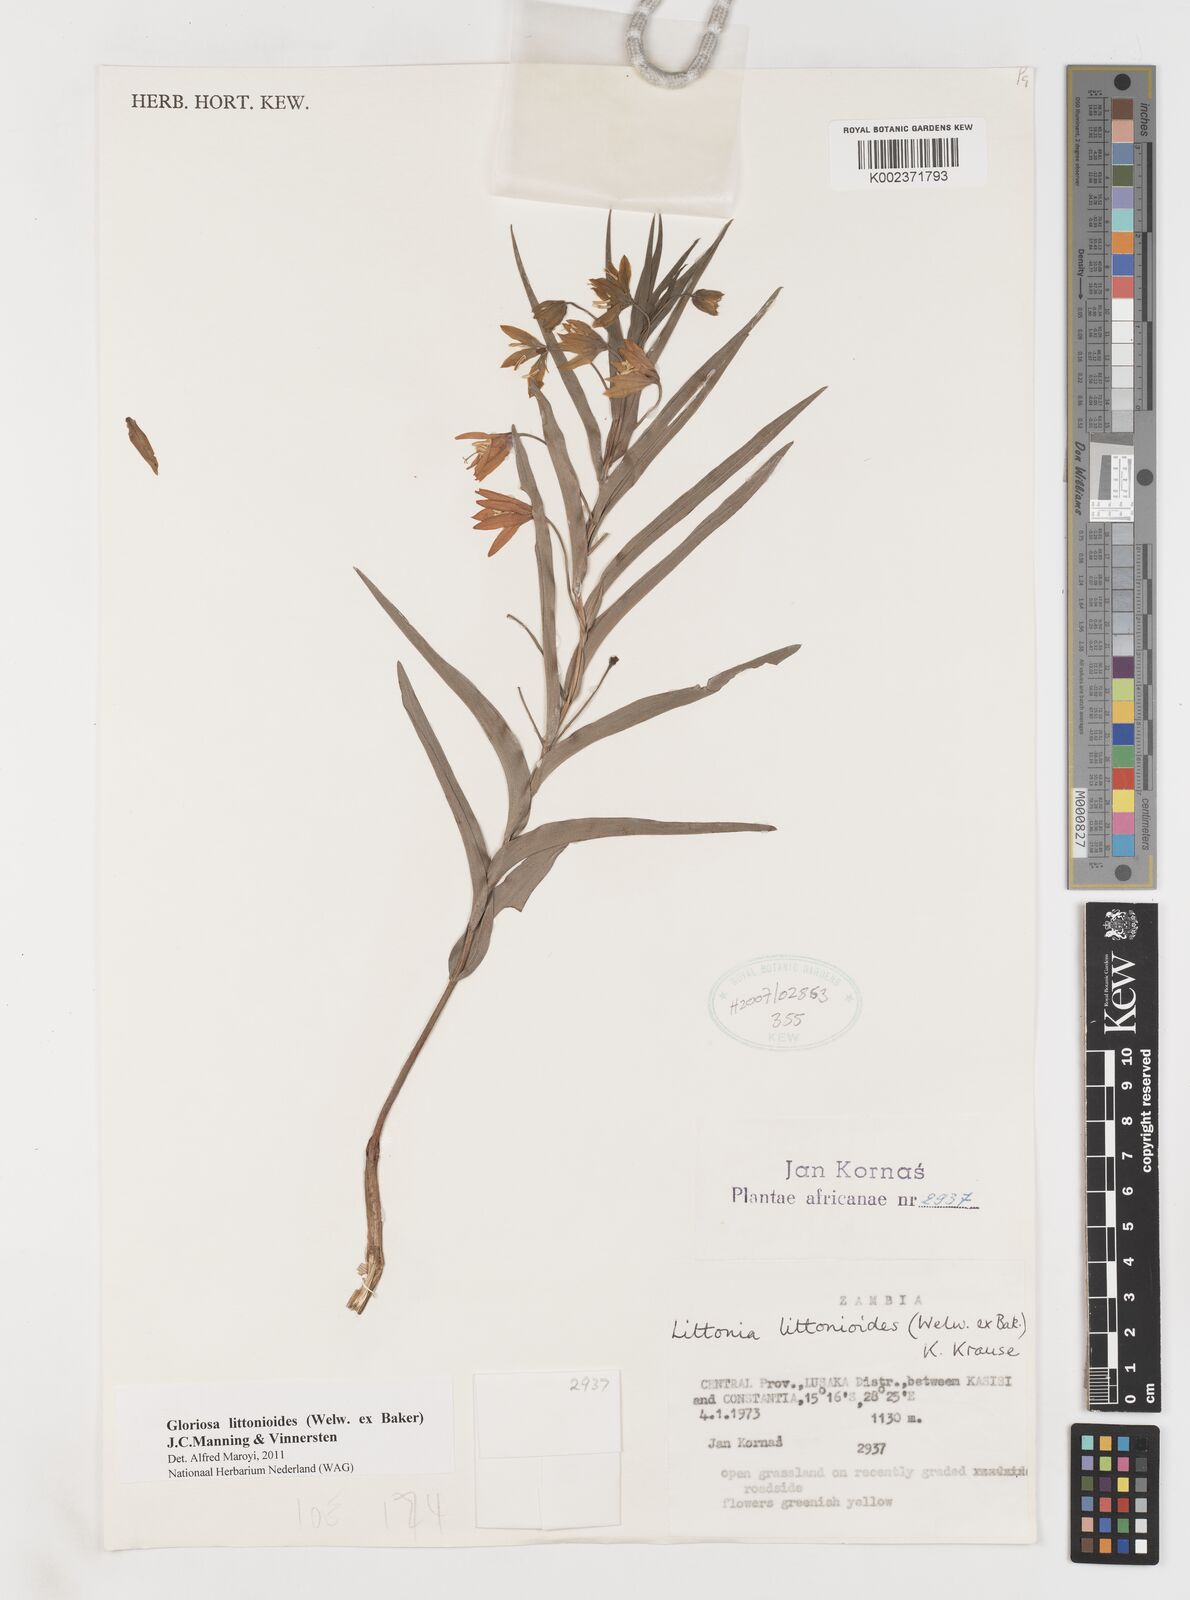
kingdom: Plantae
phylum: Tracheophyta
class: Liliopsida
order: Liliales
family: Colchicaceae
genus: Gloriosa
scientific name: Gloriosa littonioides
